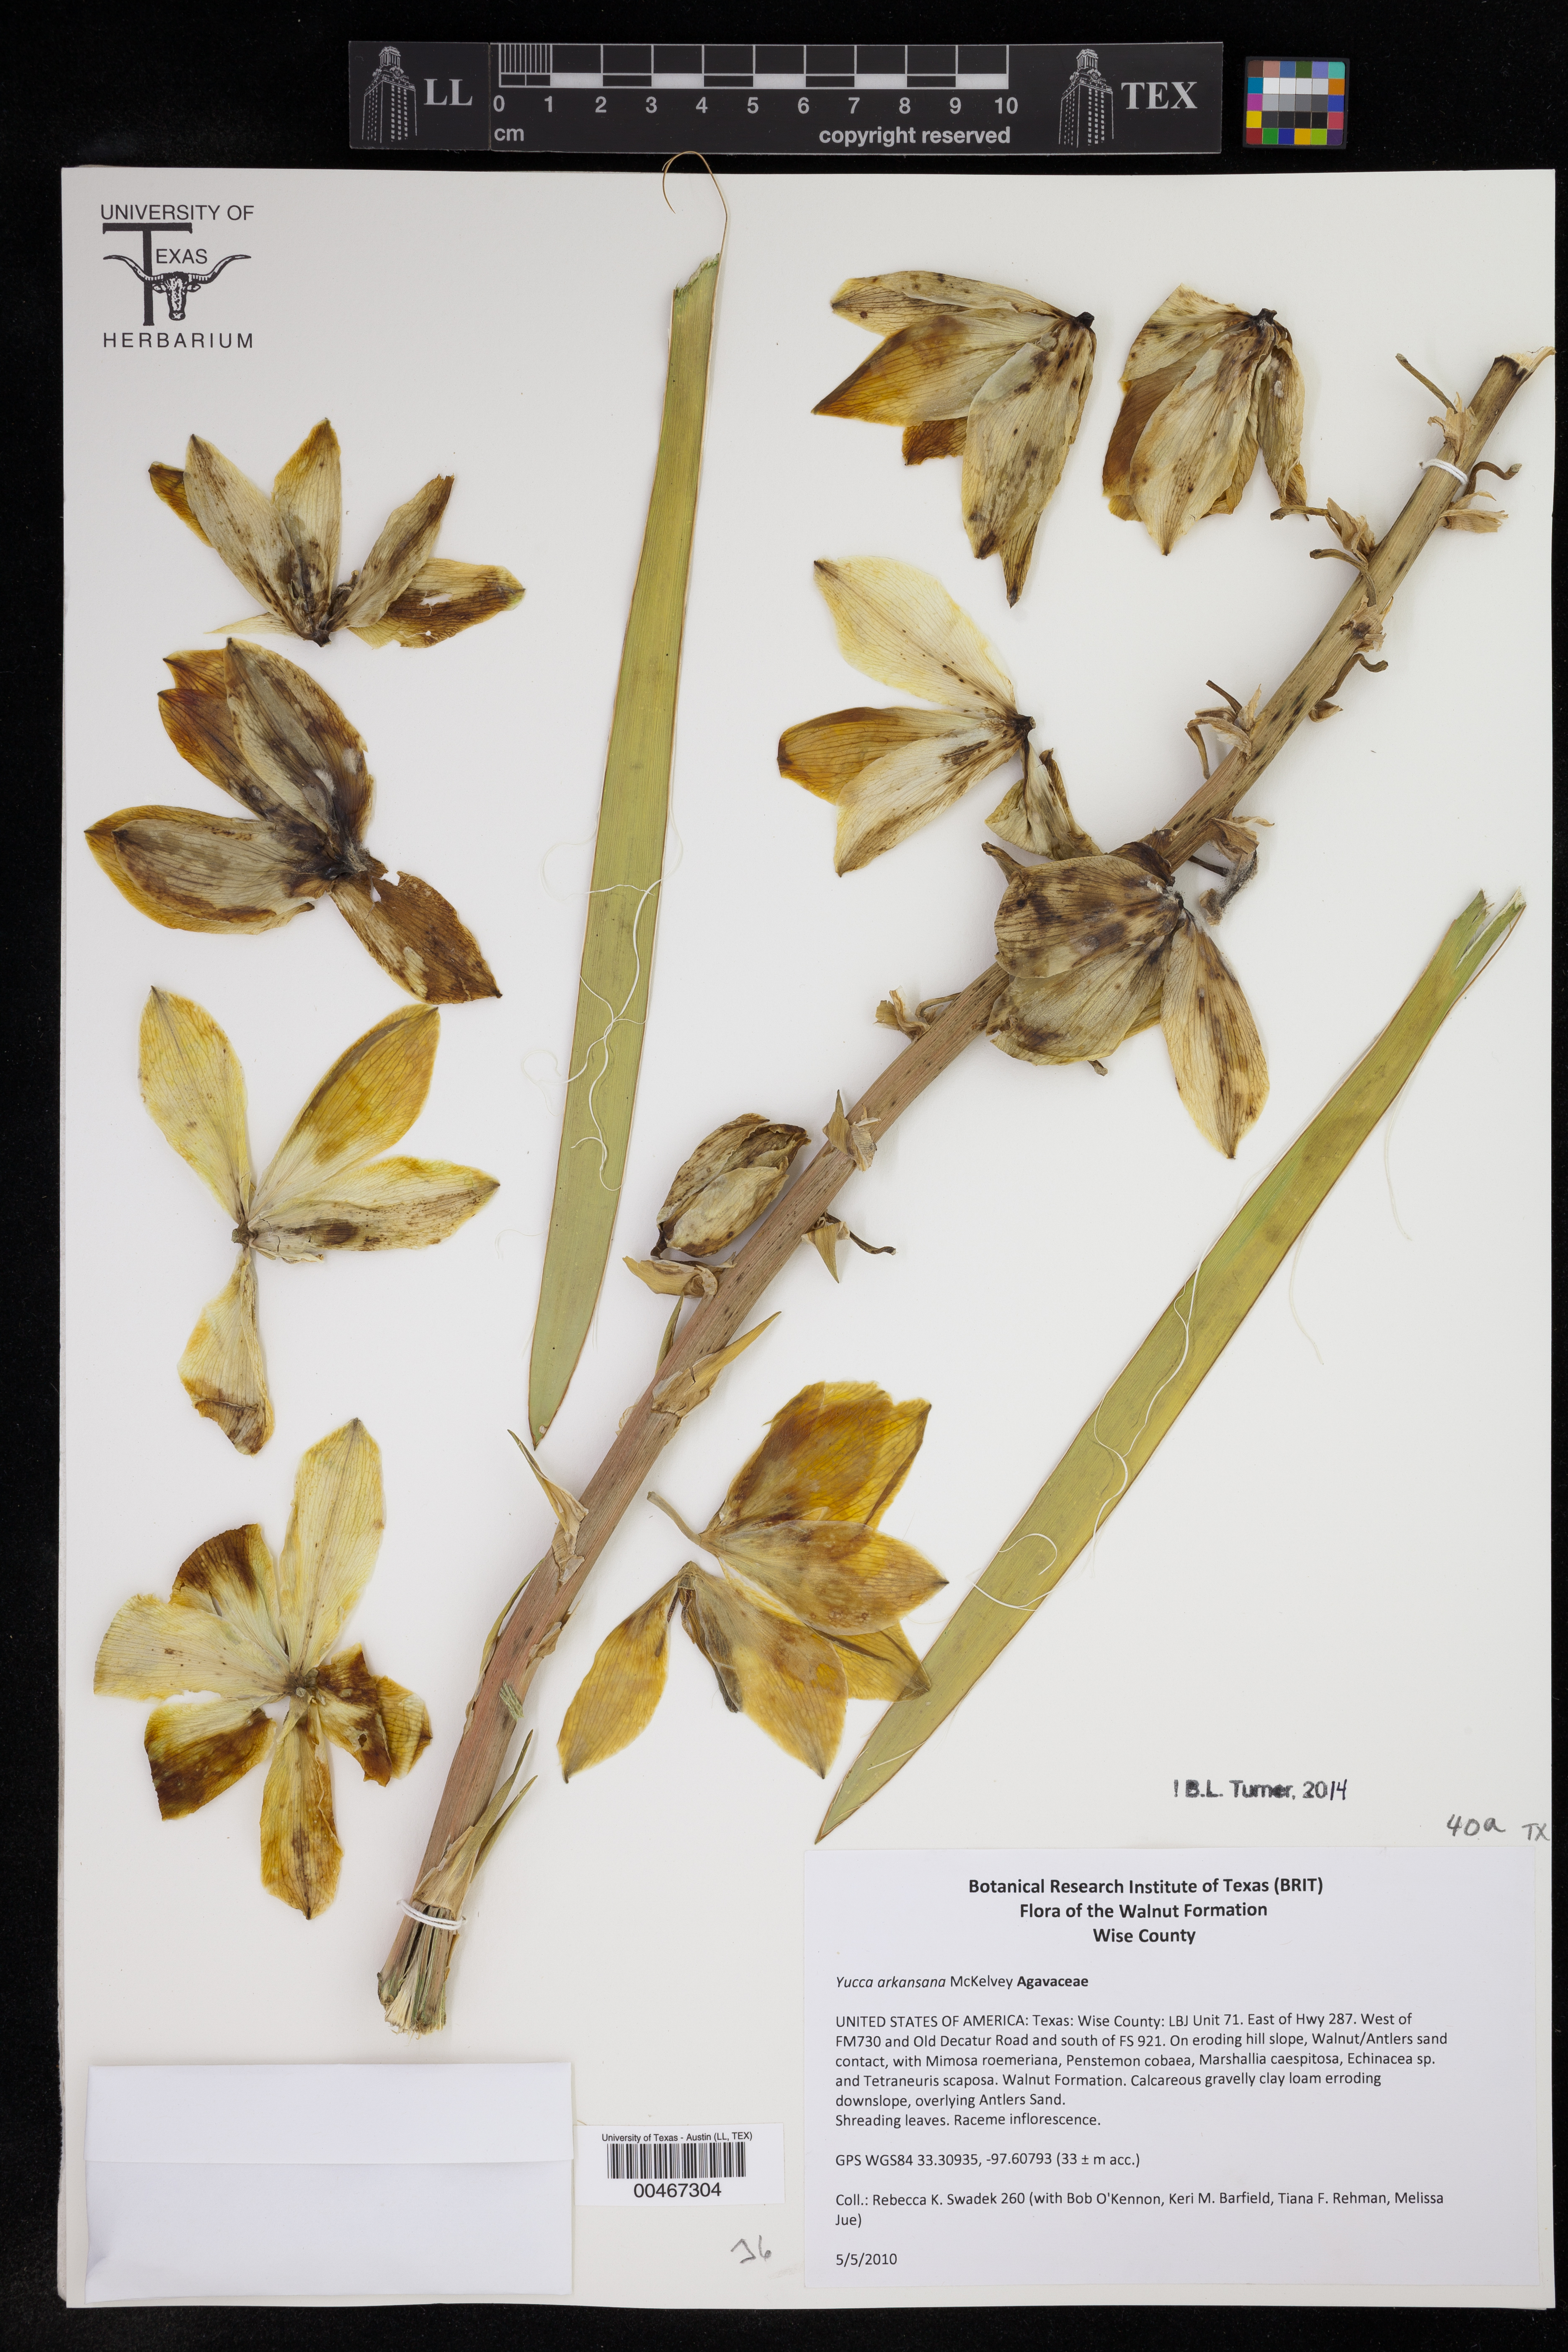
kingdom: Plantae
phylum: Tracheophyta
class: Liliopsida
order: Asparagales
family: Asparagaceae
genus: Yucca
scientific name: Yucca arkansana
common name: Arkansas yucca
